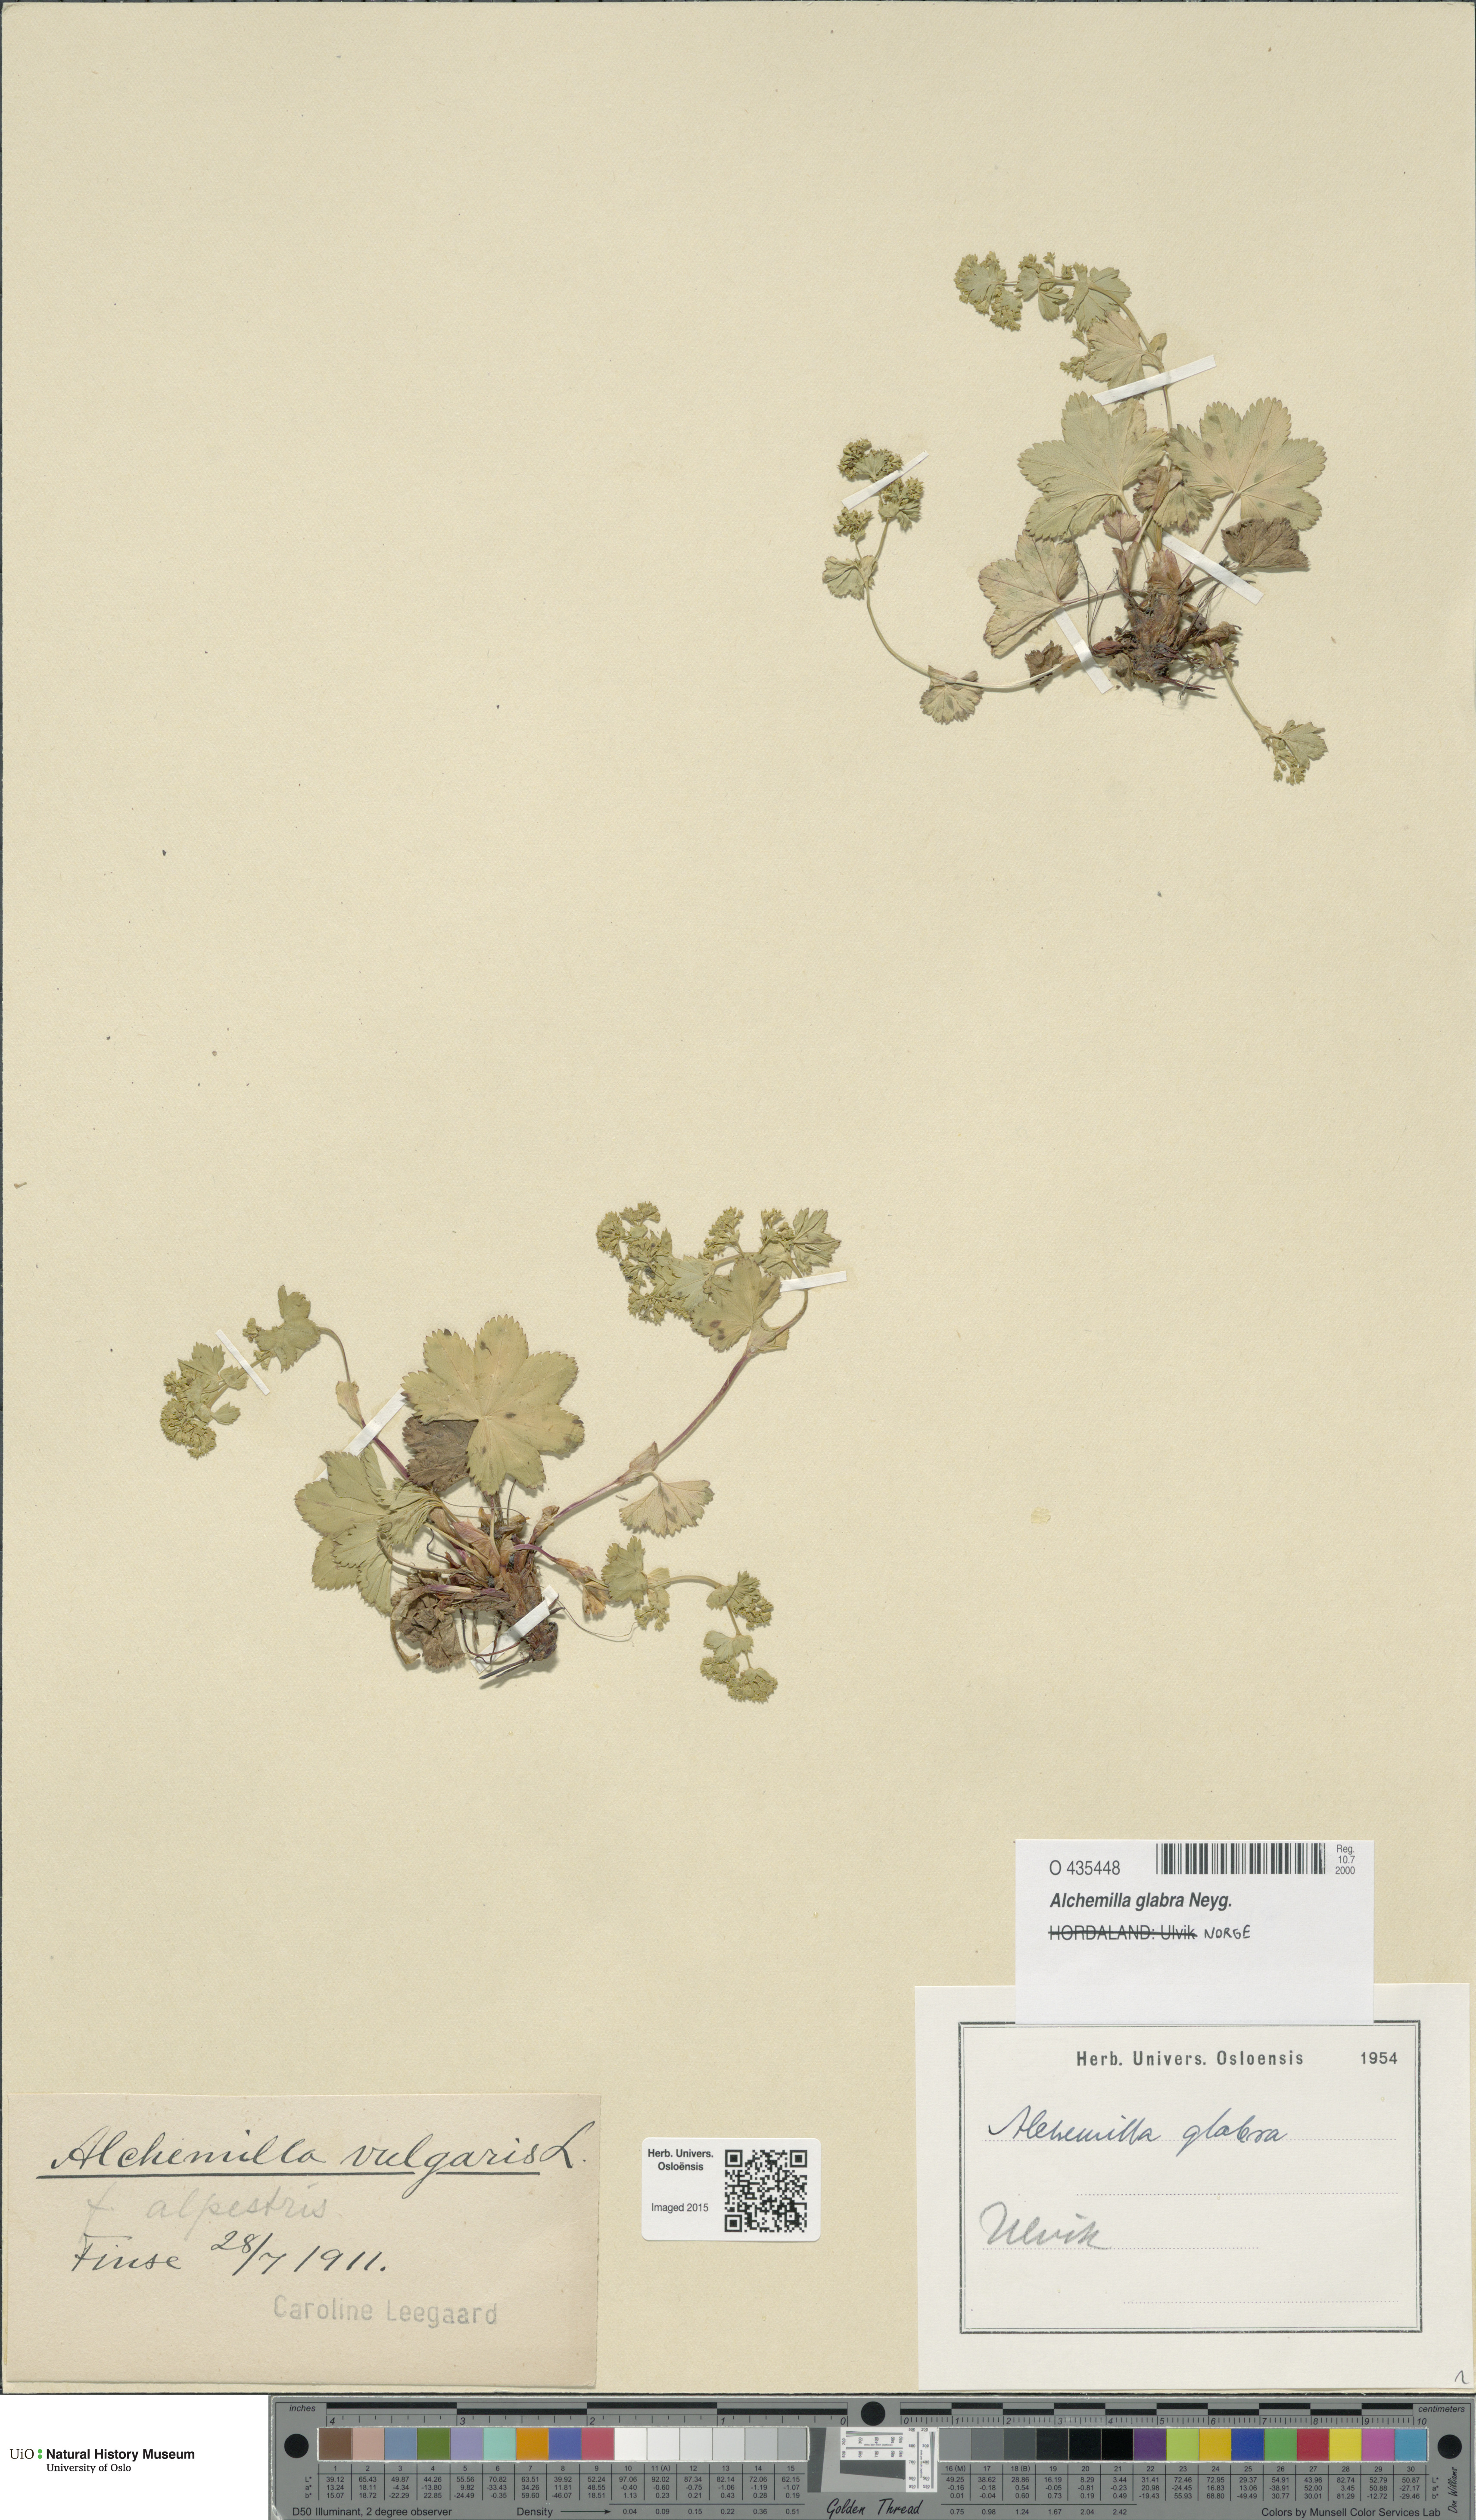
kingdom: Plantae
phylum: Tracheophyta
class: Magnoliopsida
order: Rosales
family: Rosaceae
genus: Alchemilla
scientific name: Alchemilla glabra
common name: Smooth lady's-mantle
